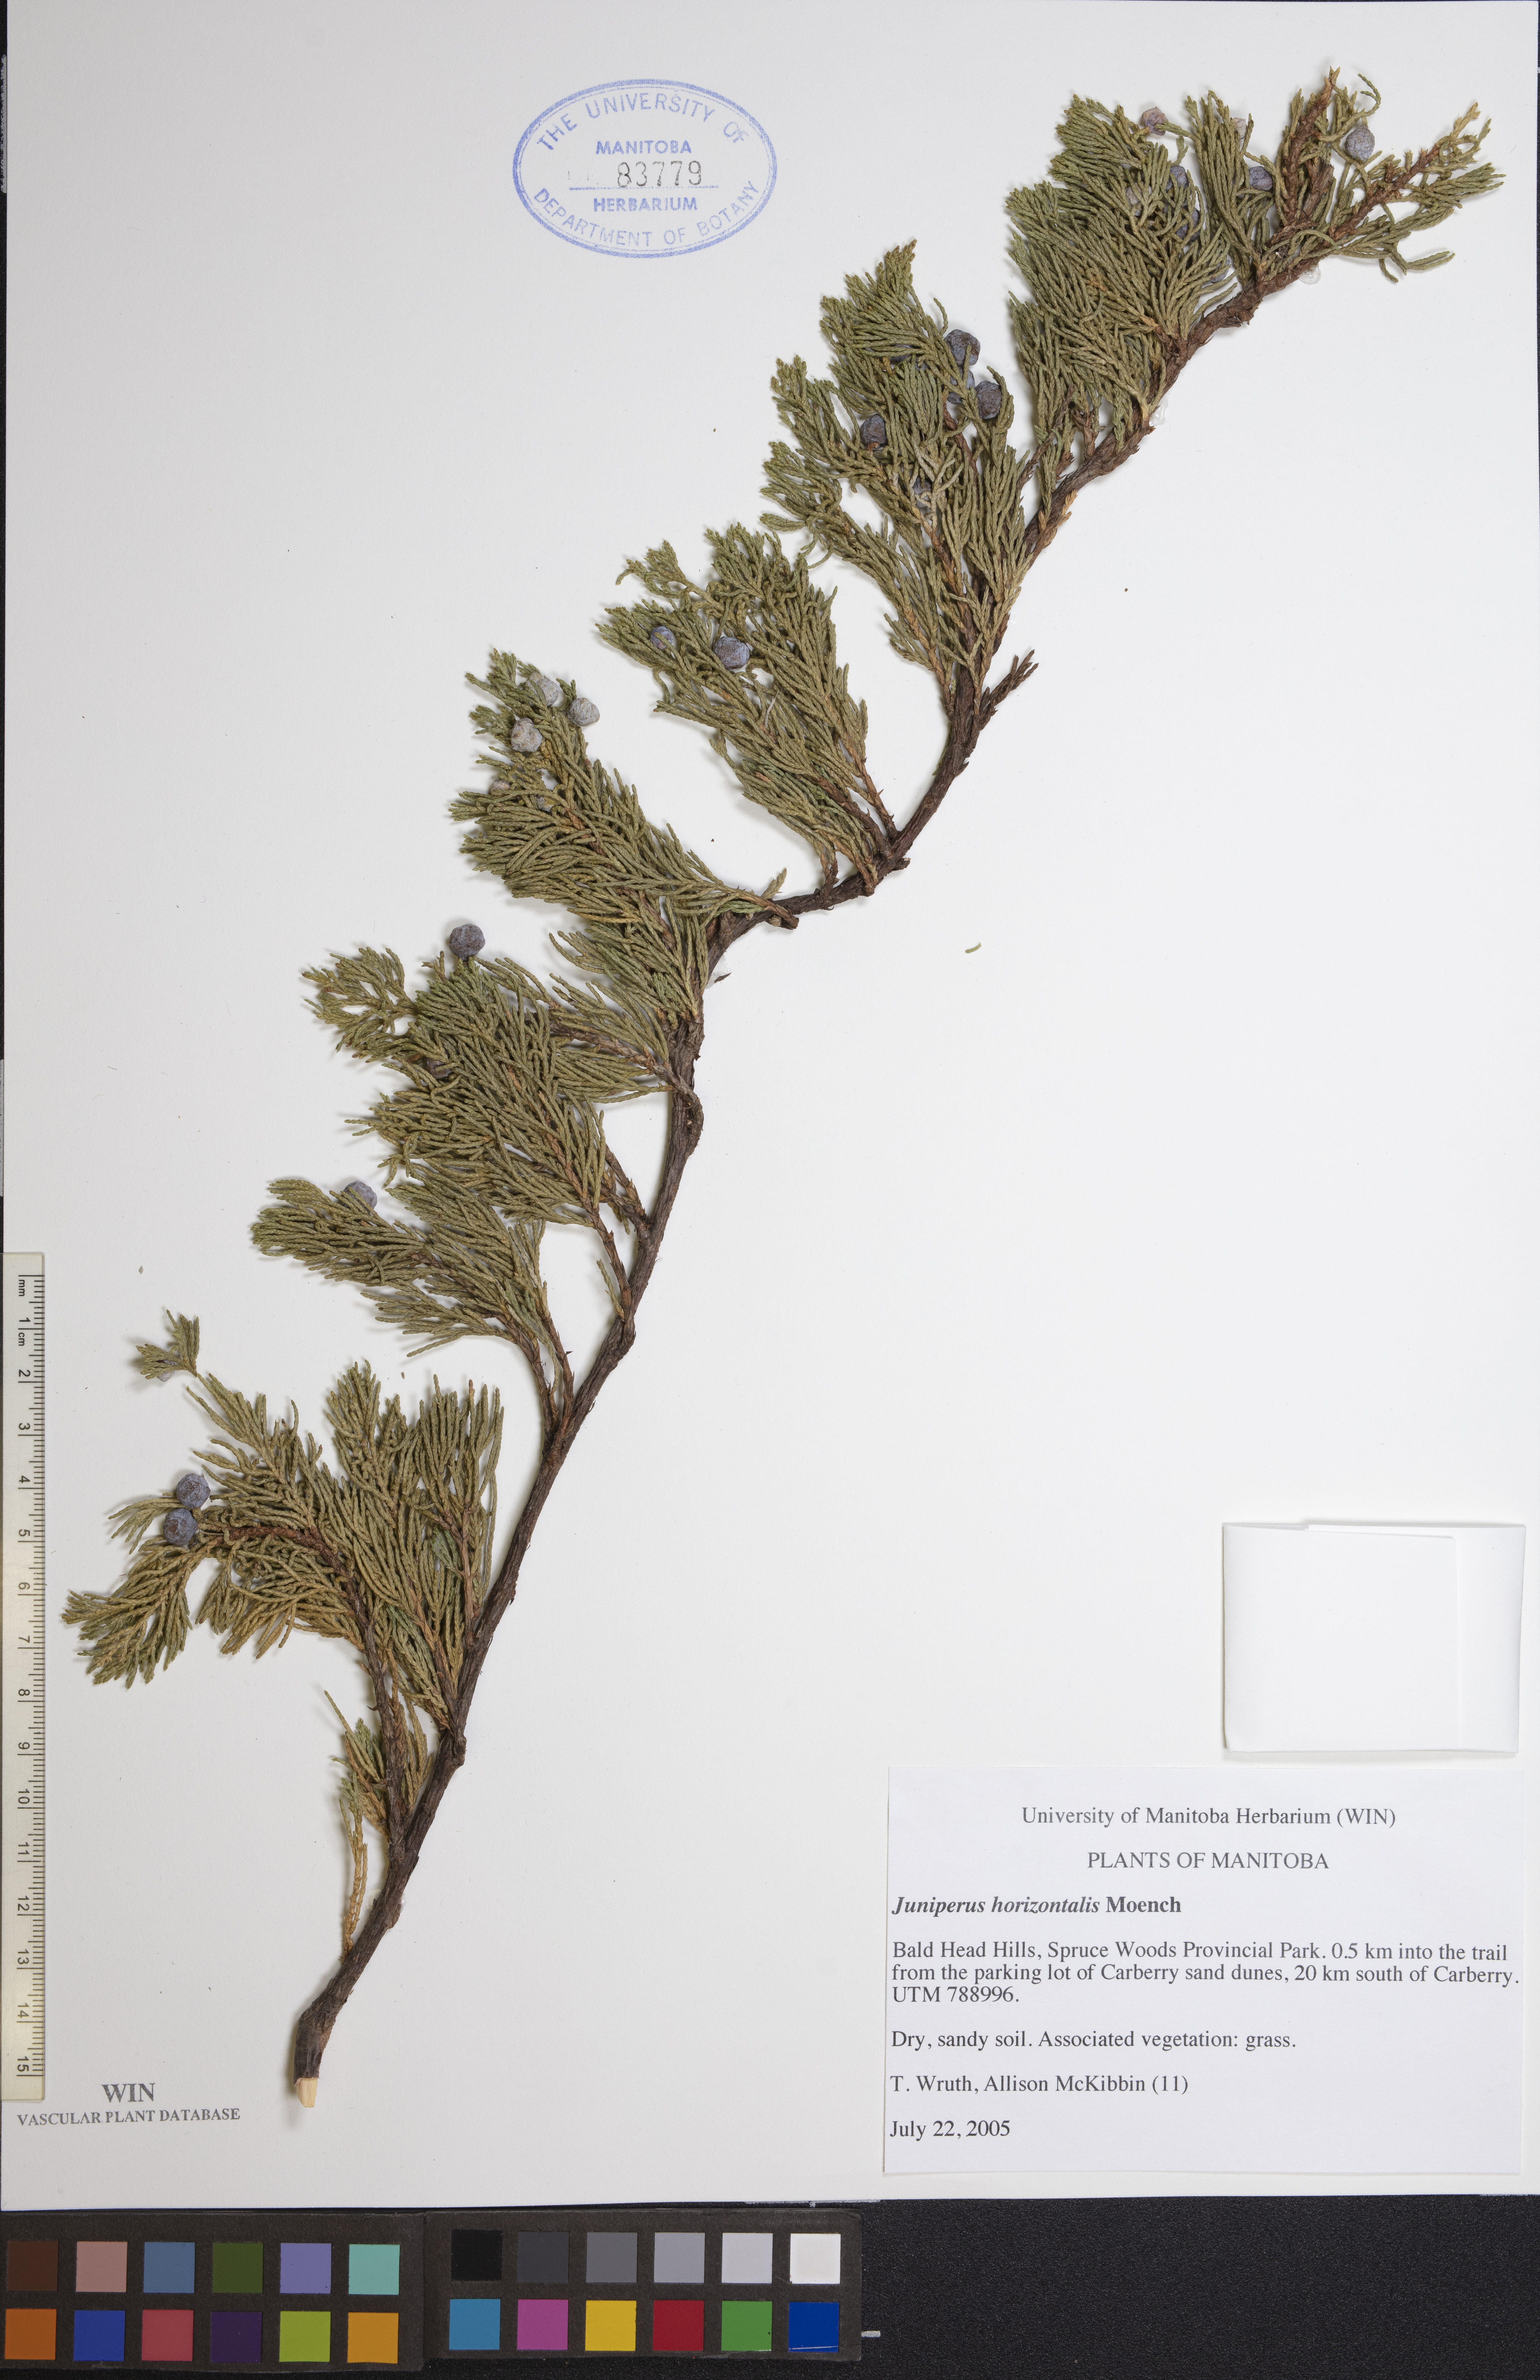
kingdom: Plantae
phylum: Tracheophyta
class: Pinopsida
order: Pinales
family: Cupressaceae
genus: Juniperus
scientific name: Juniperus horizontalis
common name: Creeping juniper
